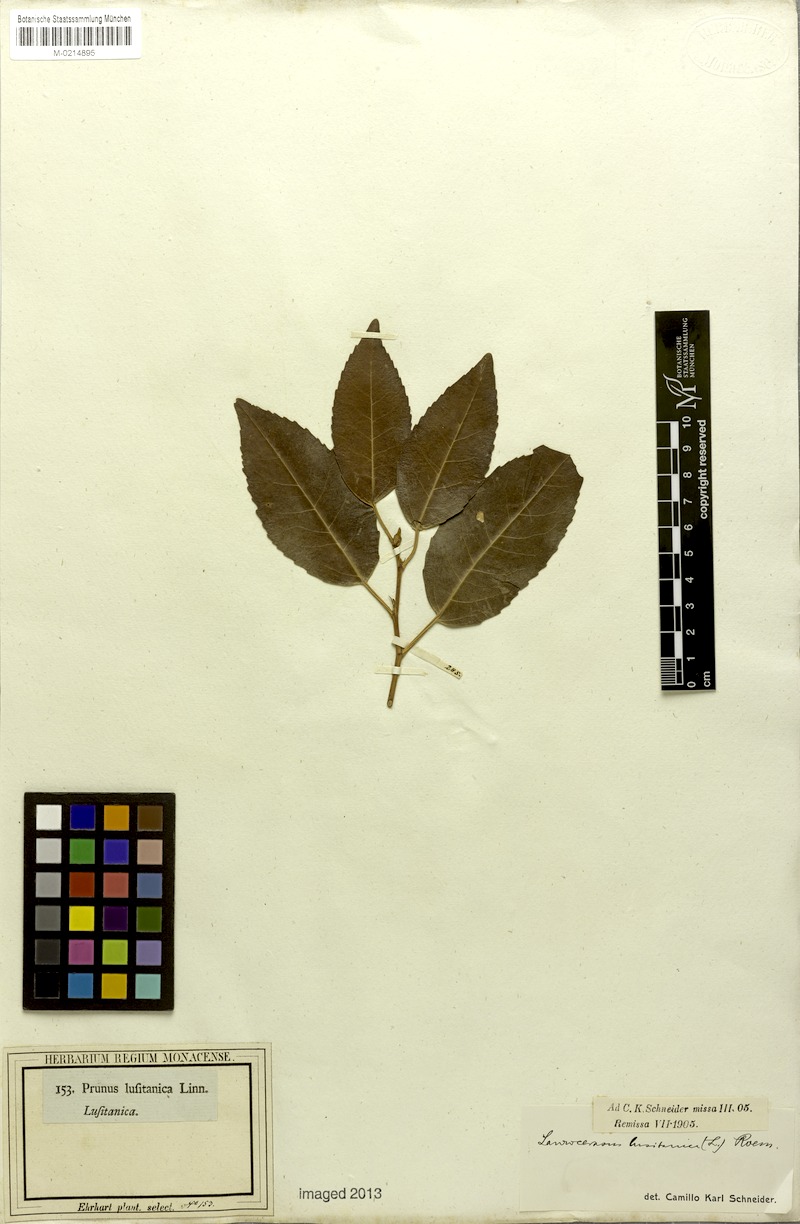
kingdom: Plantae
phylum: Tracheophyta
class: Magnoliopsida
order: Rosales
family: Rosaceae
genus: Prunus
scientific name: Prunus lusitanica
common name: Portugal laurel
